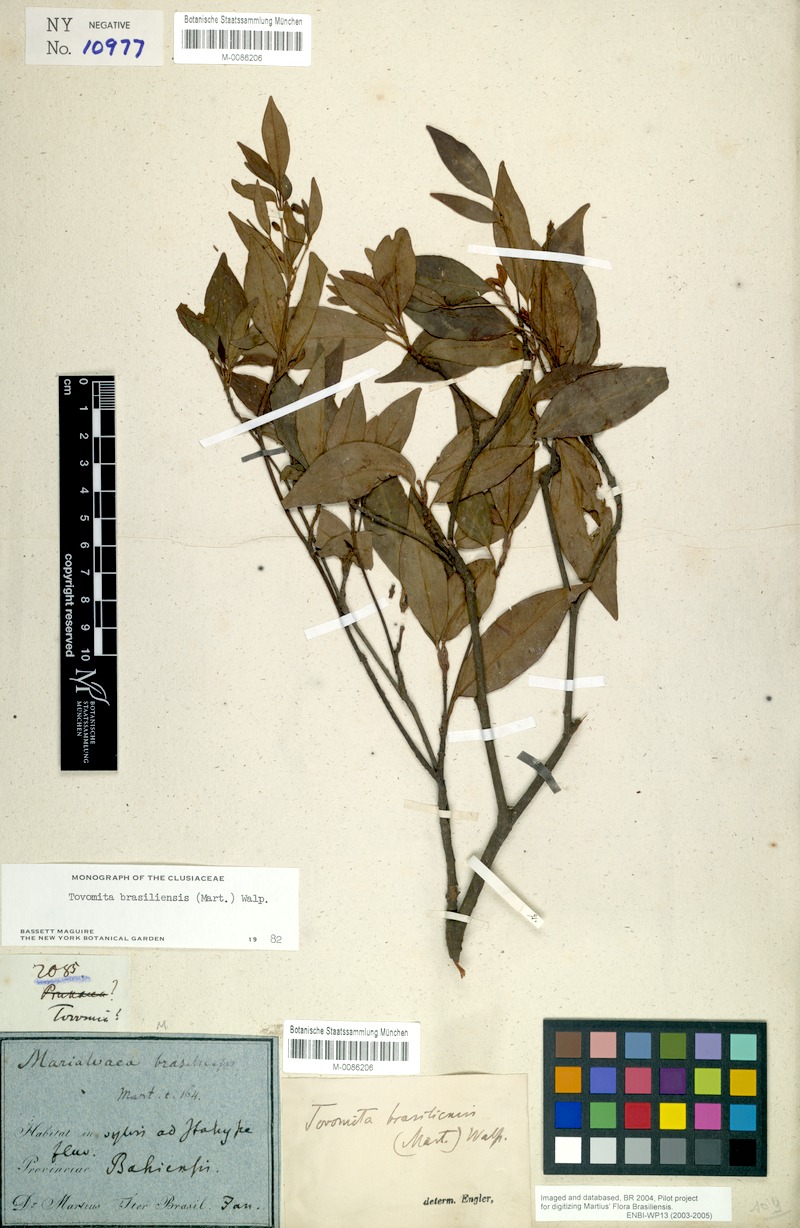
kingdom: Plantae
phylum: Tracheophyta
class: Magnoliopsida
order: Malpighiales
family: Clusiaceae
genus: Tovomita
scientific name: Tovomita fructipendula
